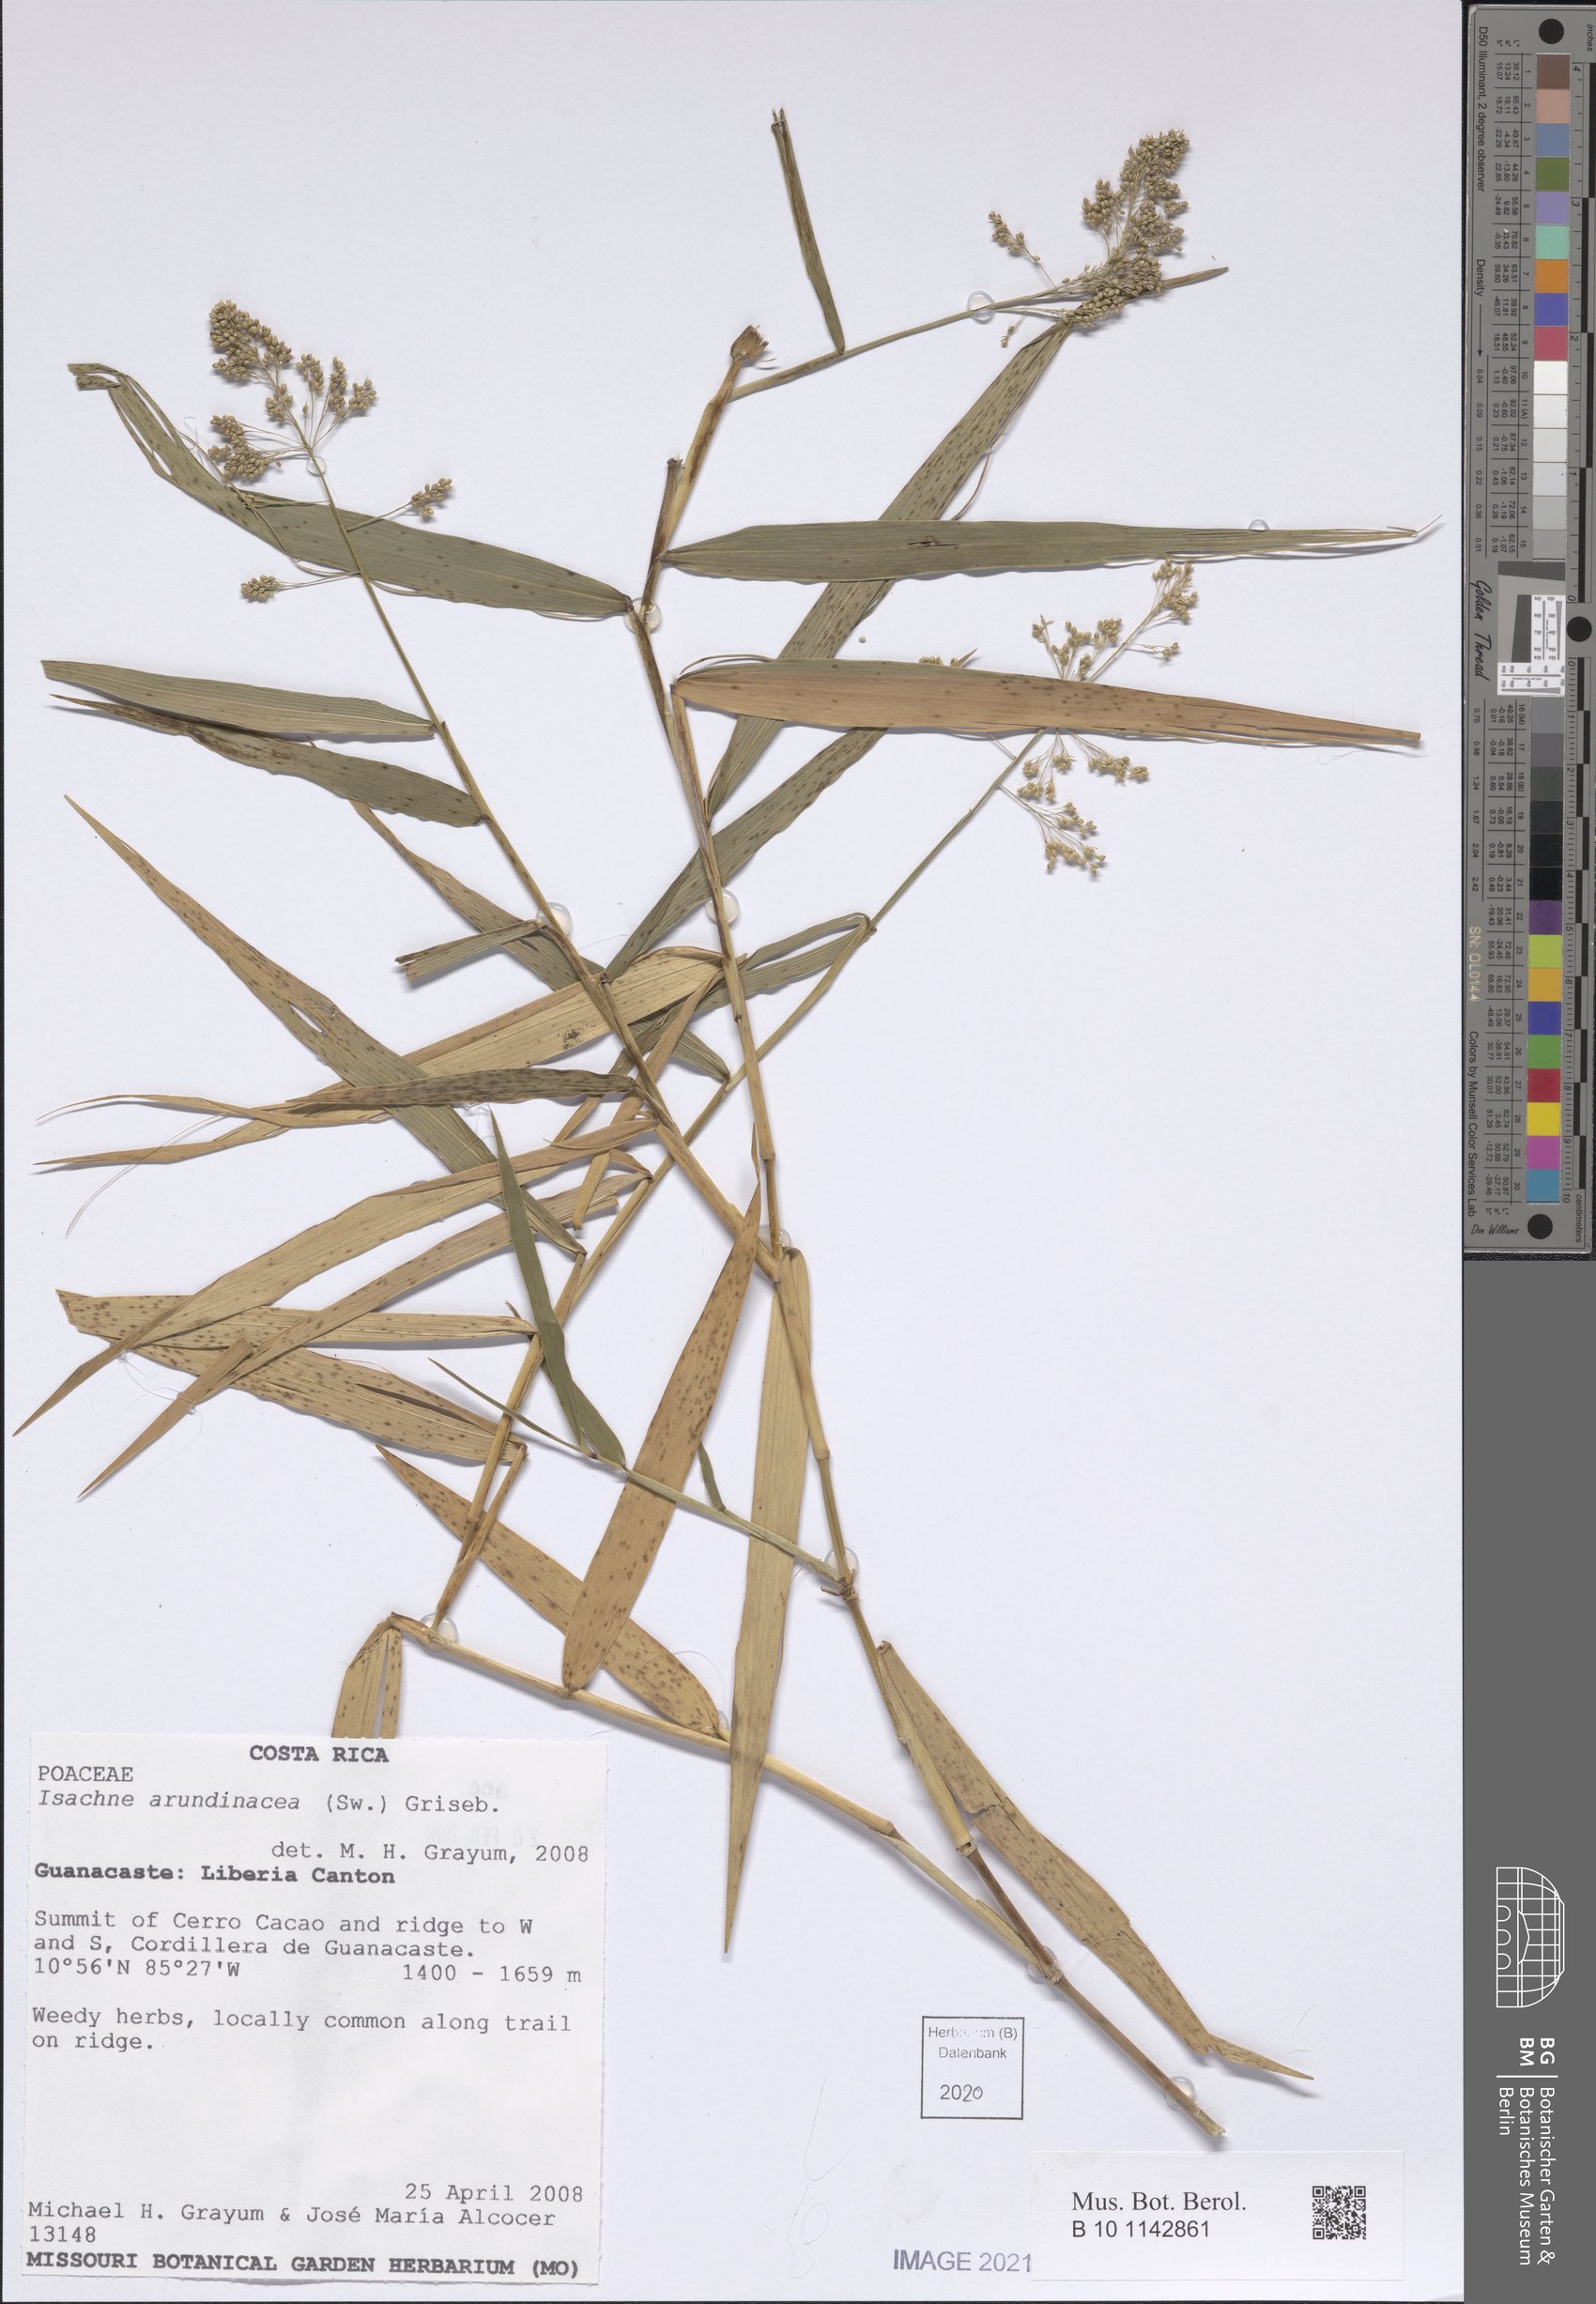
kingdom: Plantae
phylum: Tracheophyta
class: Liliopsida
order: Poales
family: Poaceae
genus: Isachne
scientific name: Isachne arundinacea
